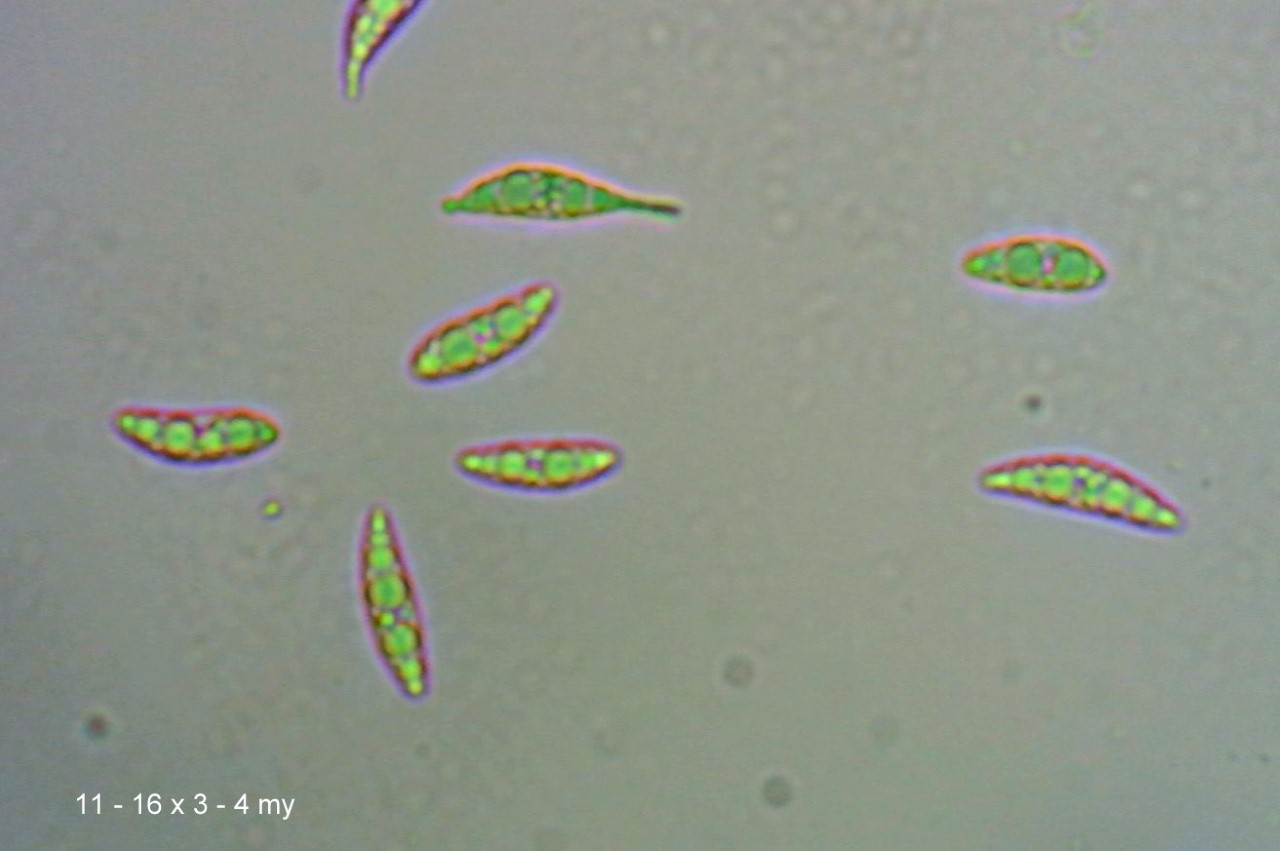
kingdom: Fungi
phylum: Ascomycota
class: Leotiomycetes
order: Leotiales
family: Leotiaceae
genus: Microglossum
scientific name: Microglossum olivaceum
